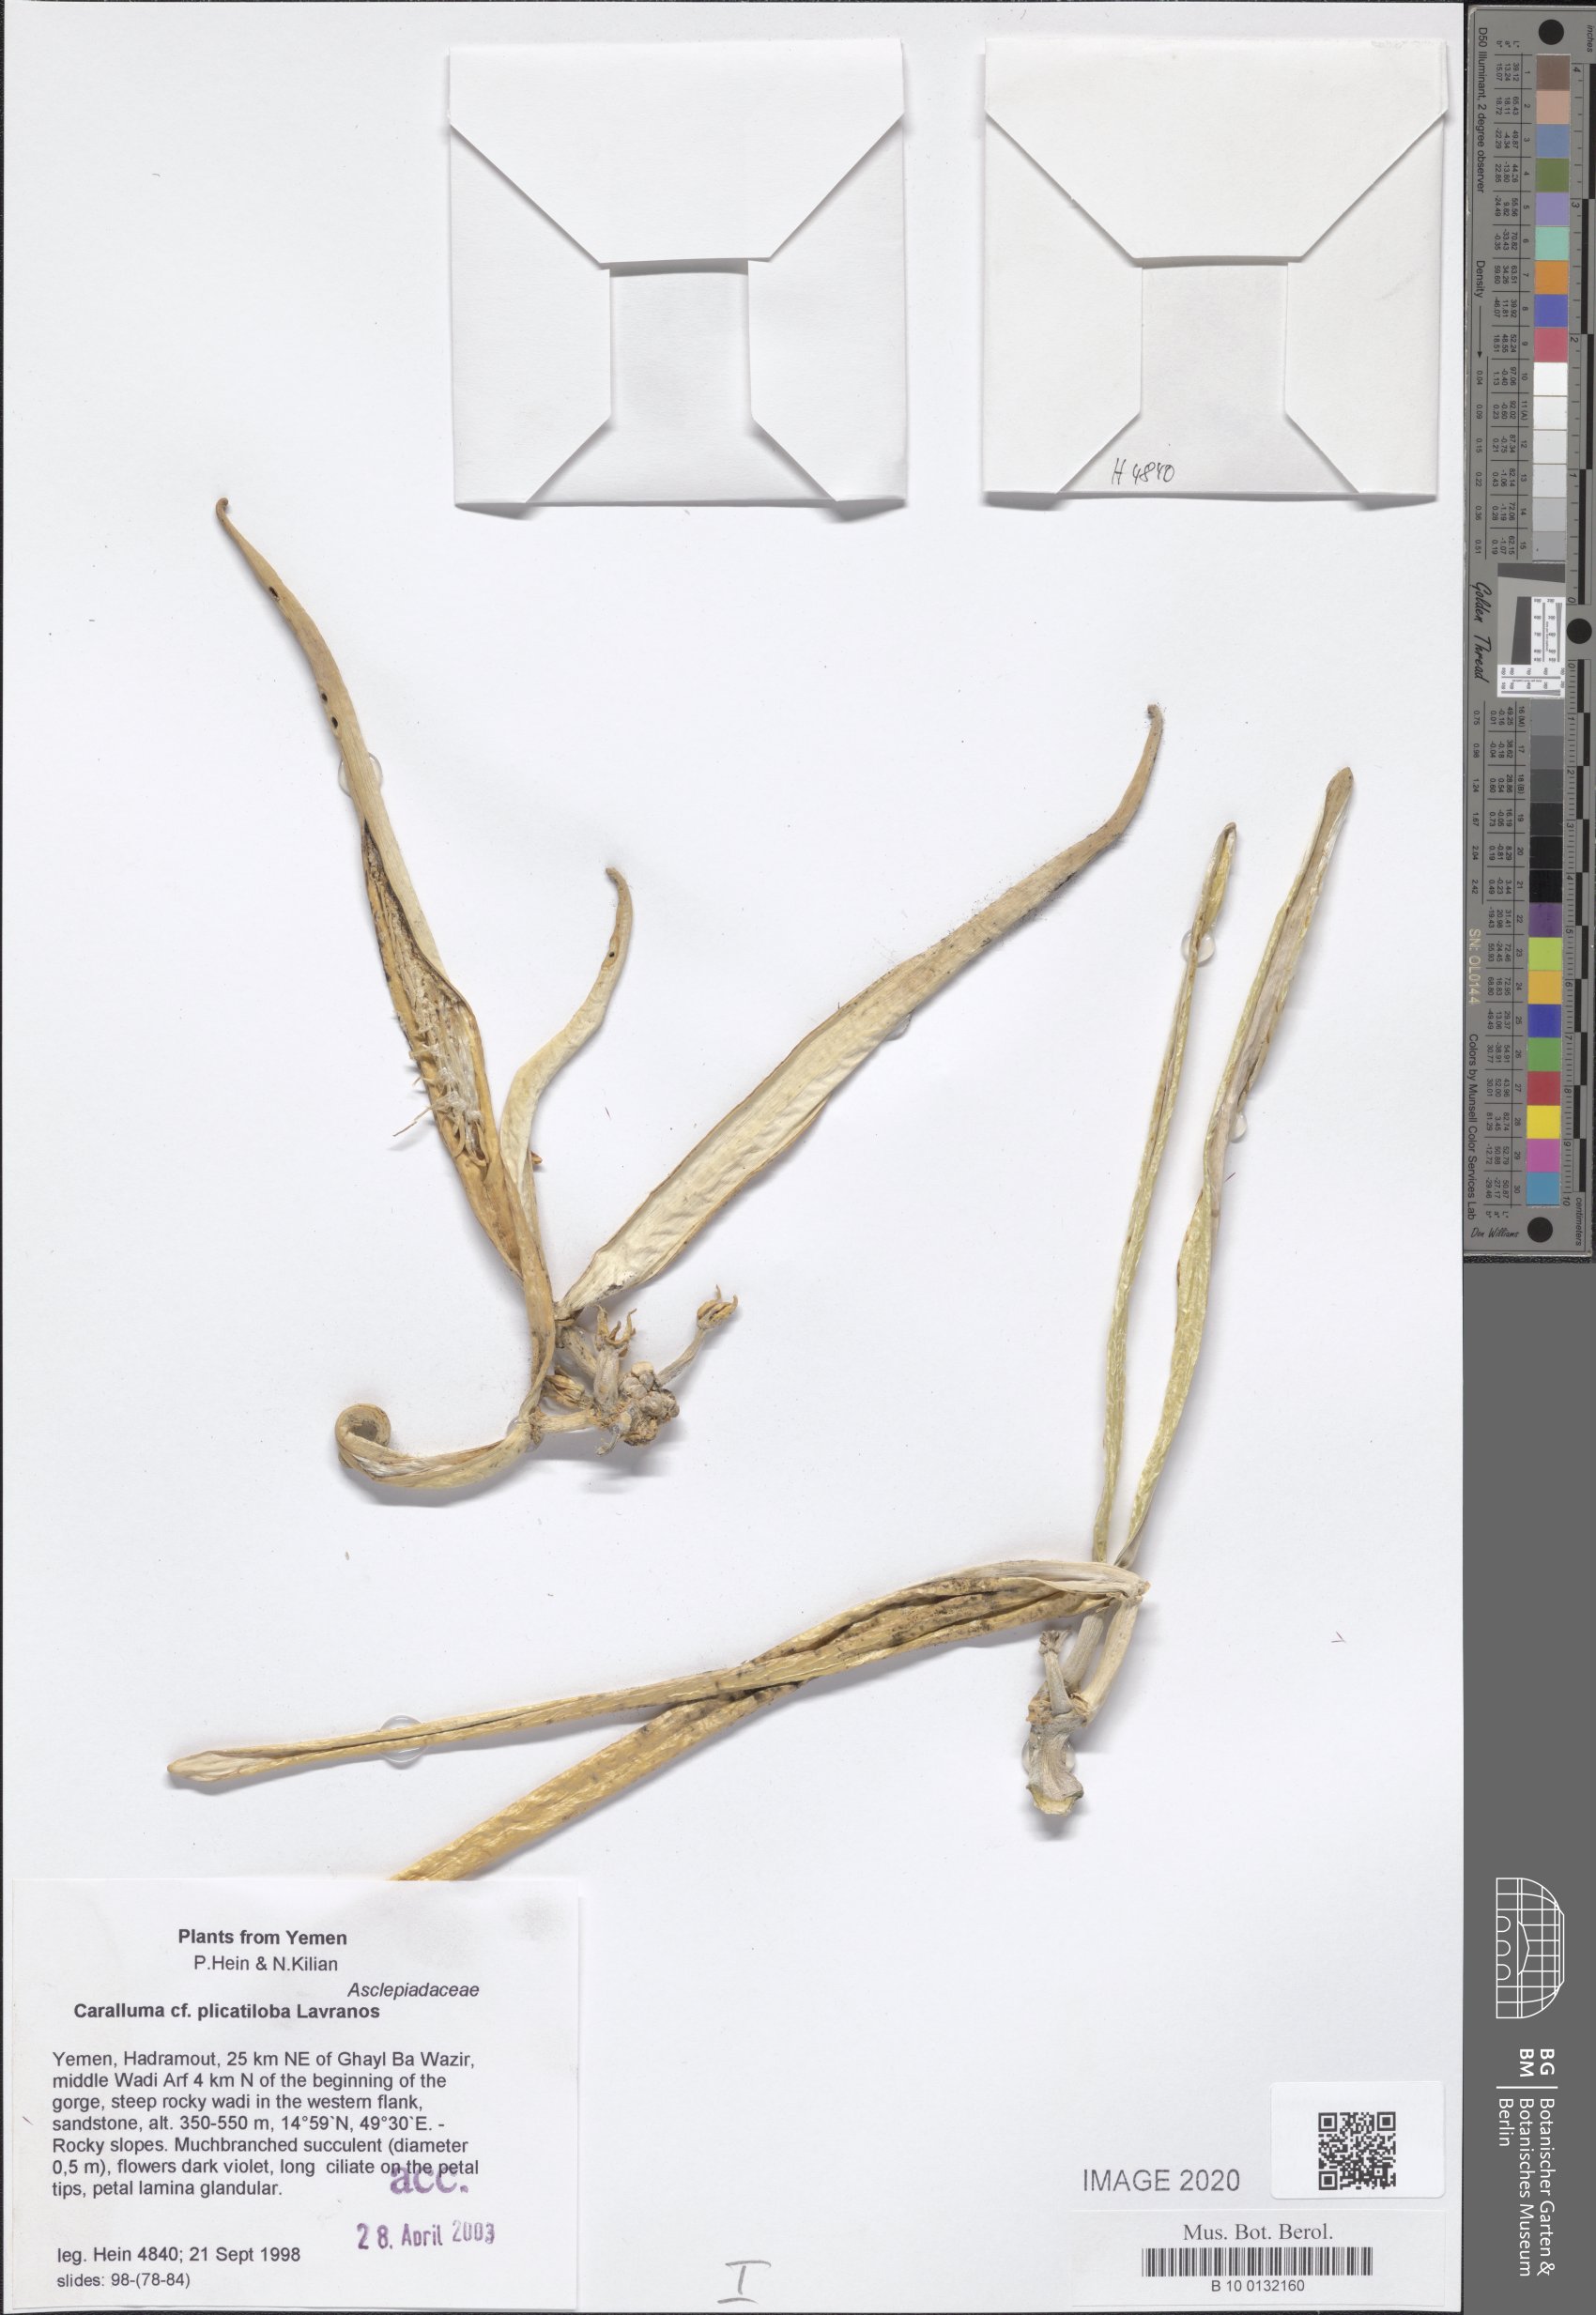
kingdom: Plantae
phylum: Tracheophyta
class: Magnoliopsida
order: Gentianales
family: Apocynaceae
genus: Ceropegia
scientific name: Ceropegia plicatiloba
